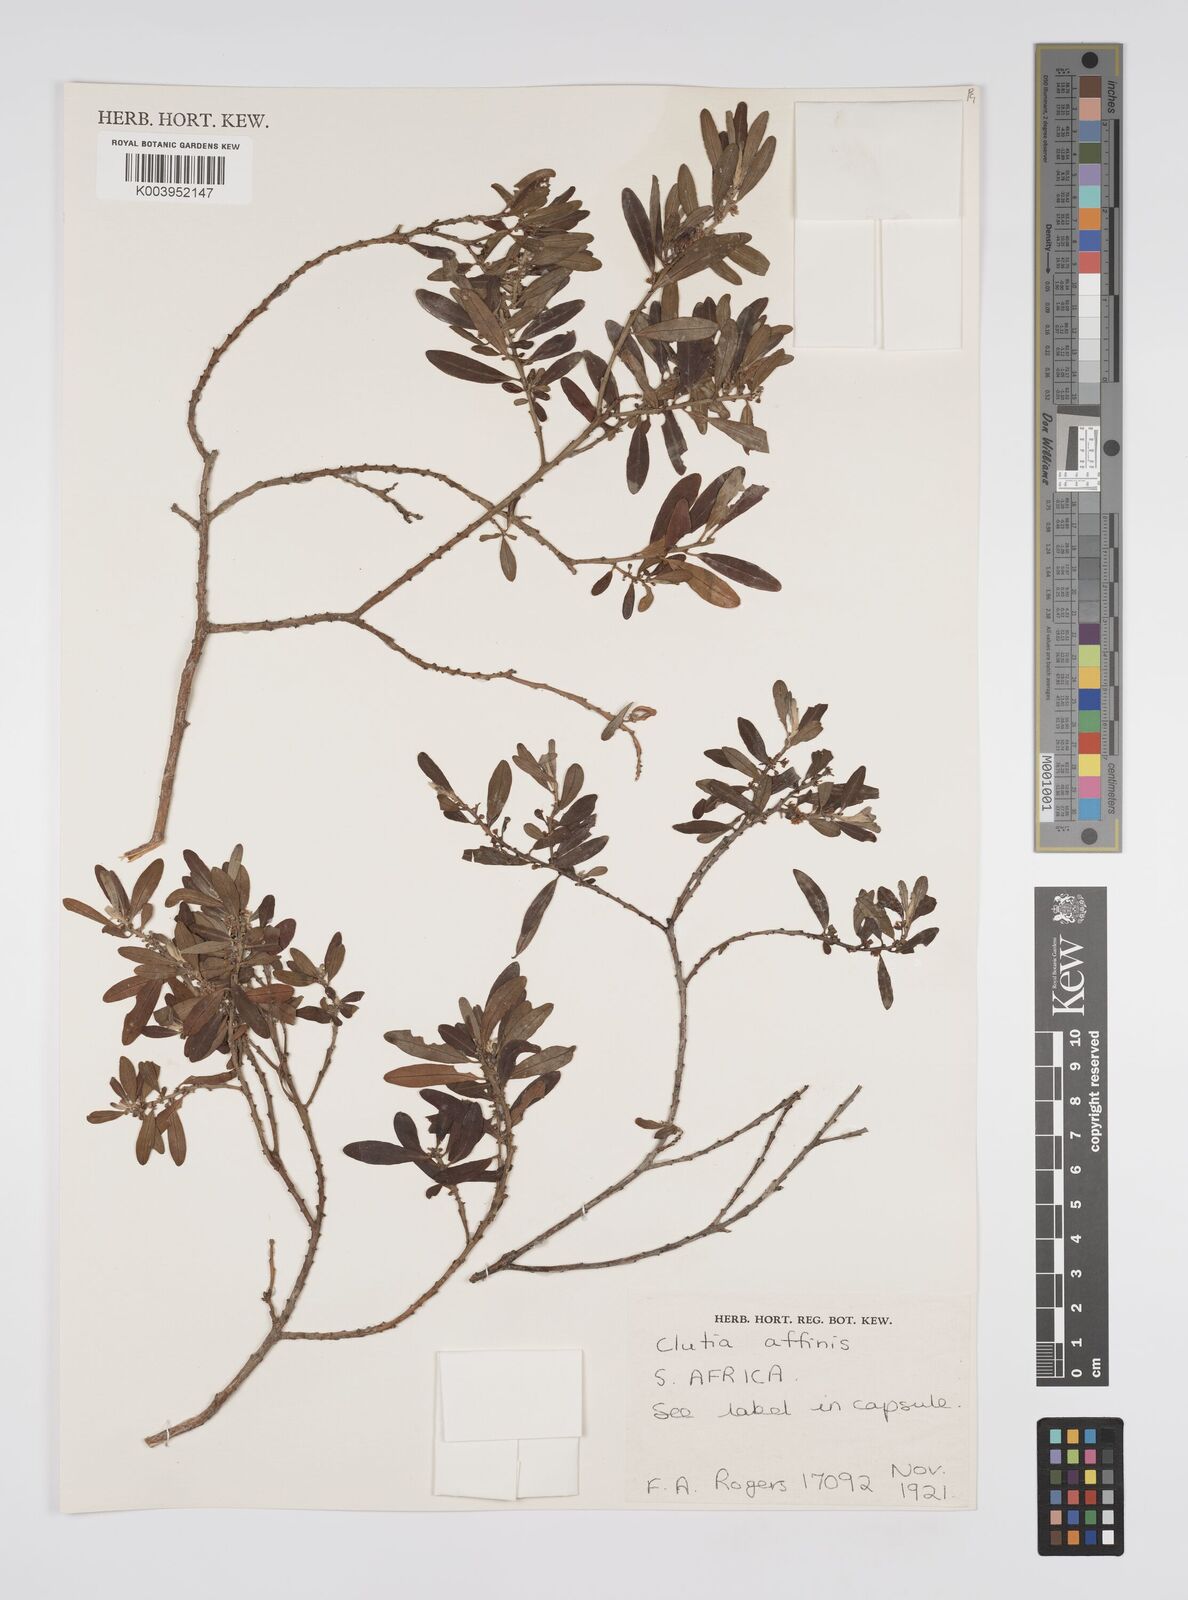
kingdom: Plantae
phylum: Tracheophyta
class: Magnoliopsida
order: Malpighiales
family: Peraceae
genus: Clutia
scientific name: Clutia affinis
